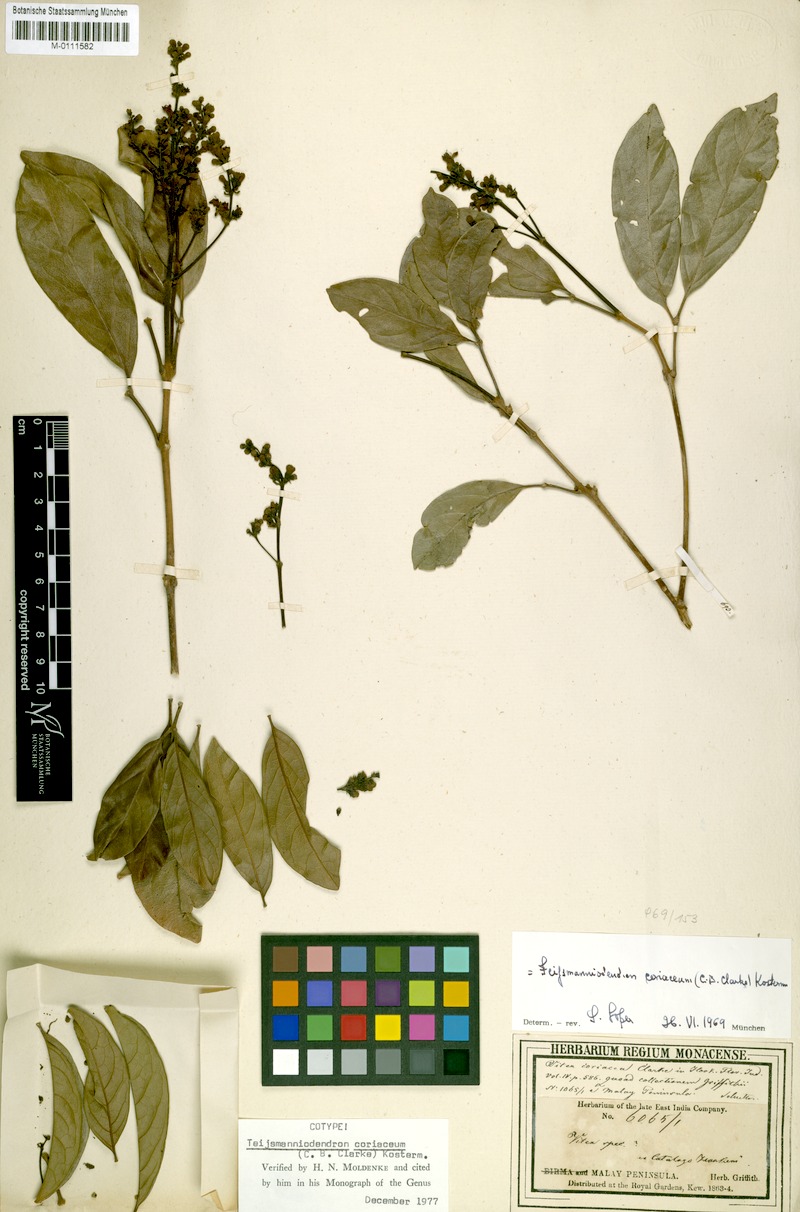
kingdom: Plantae
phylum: Tracheophyta
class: Magnoliopsida
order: Lamiales
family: Lamiaceae
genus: Teijsmanniodendron
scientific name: Teijsmanniodendron coriaceum
